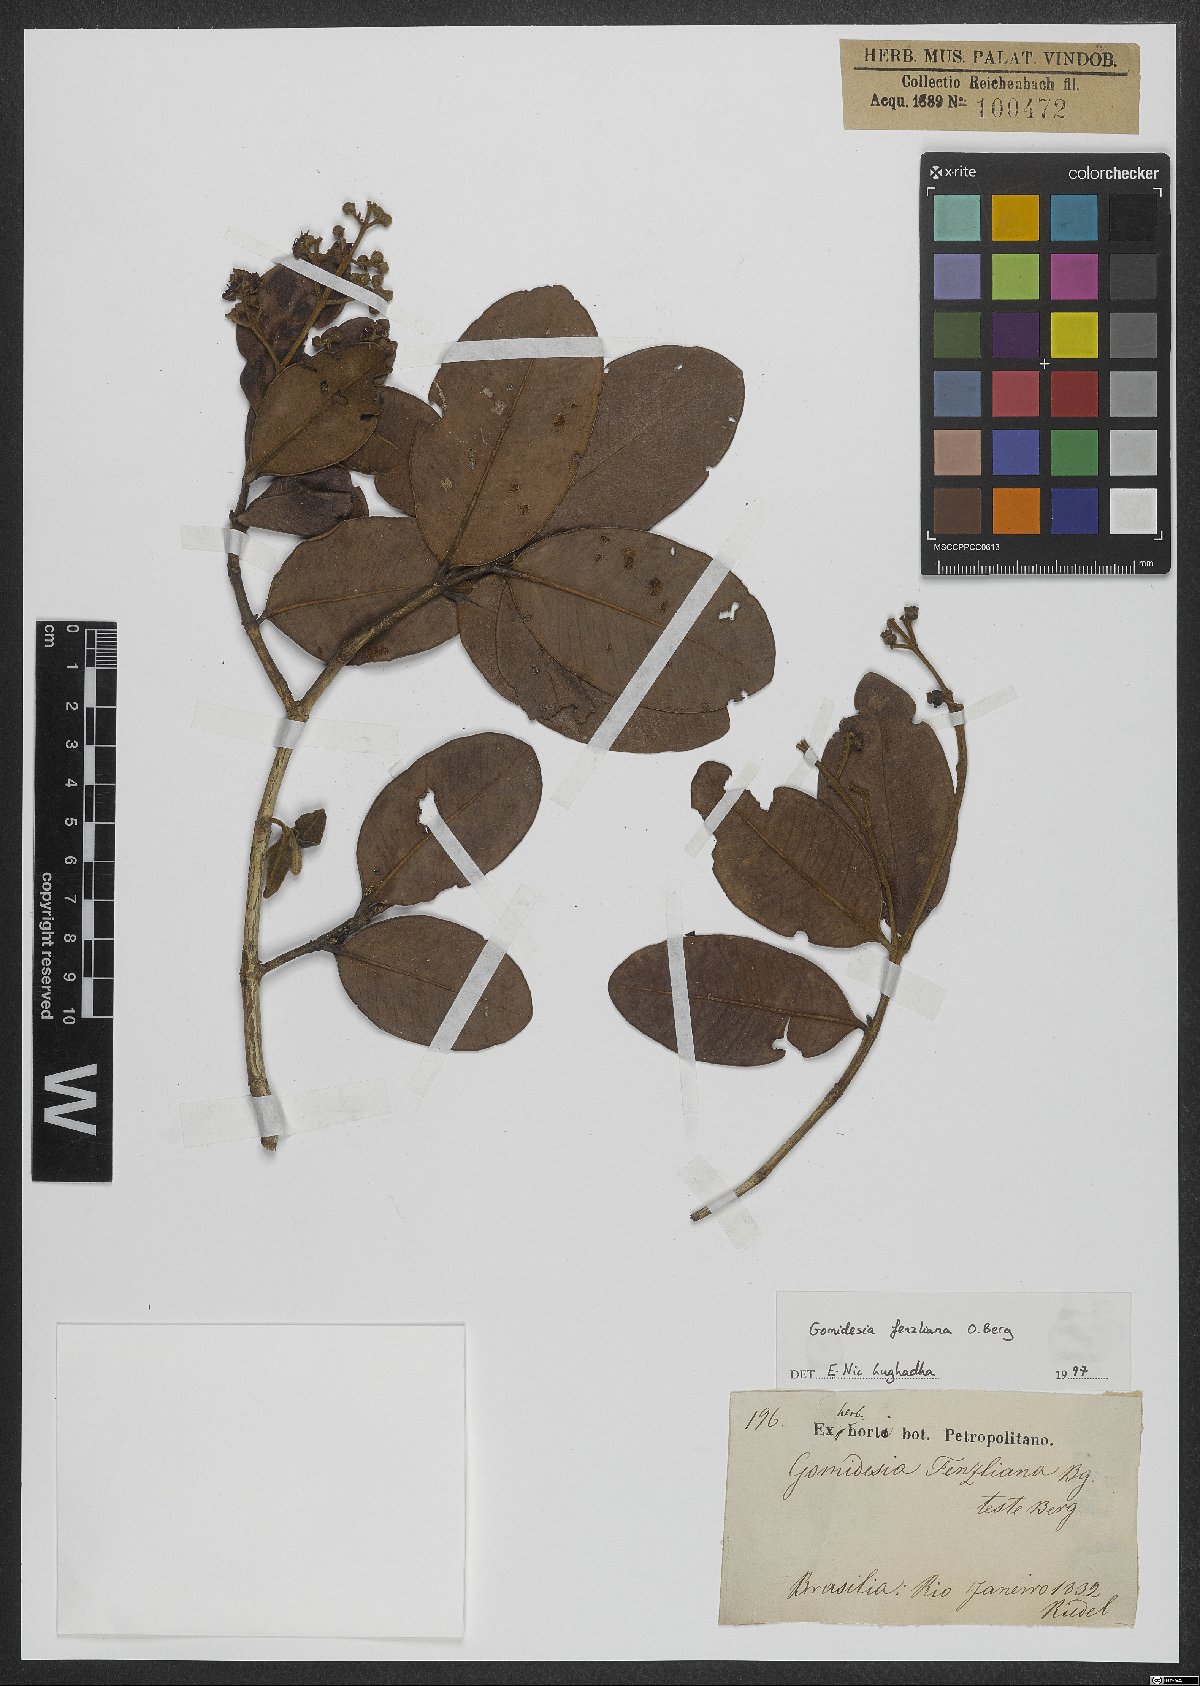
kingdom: Plantae
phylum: Tracheophyta
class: Magnoliopsida
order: Myrtales
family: Myrtaceae
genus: Myrcia
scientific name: Myrcia ilheosensis
